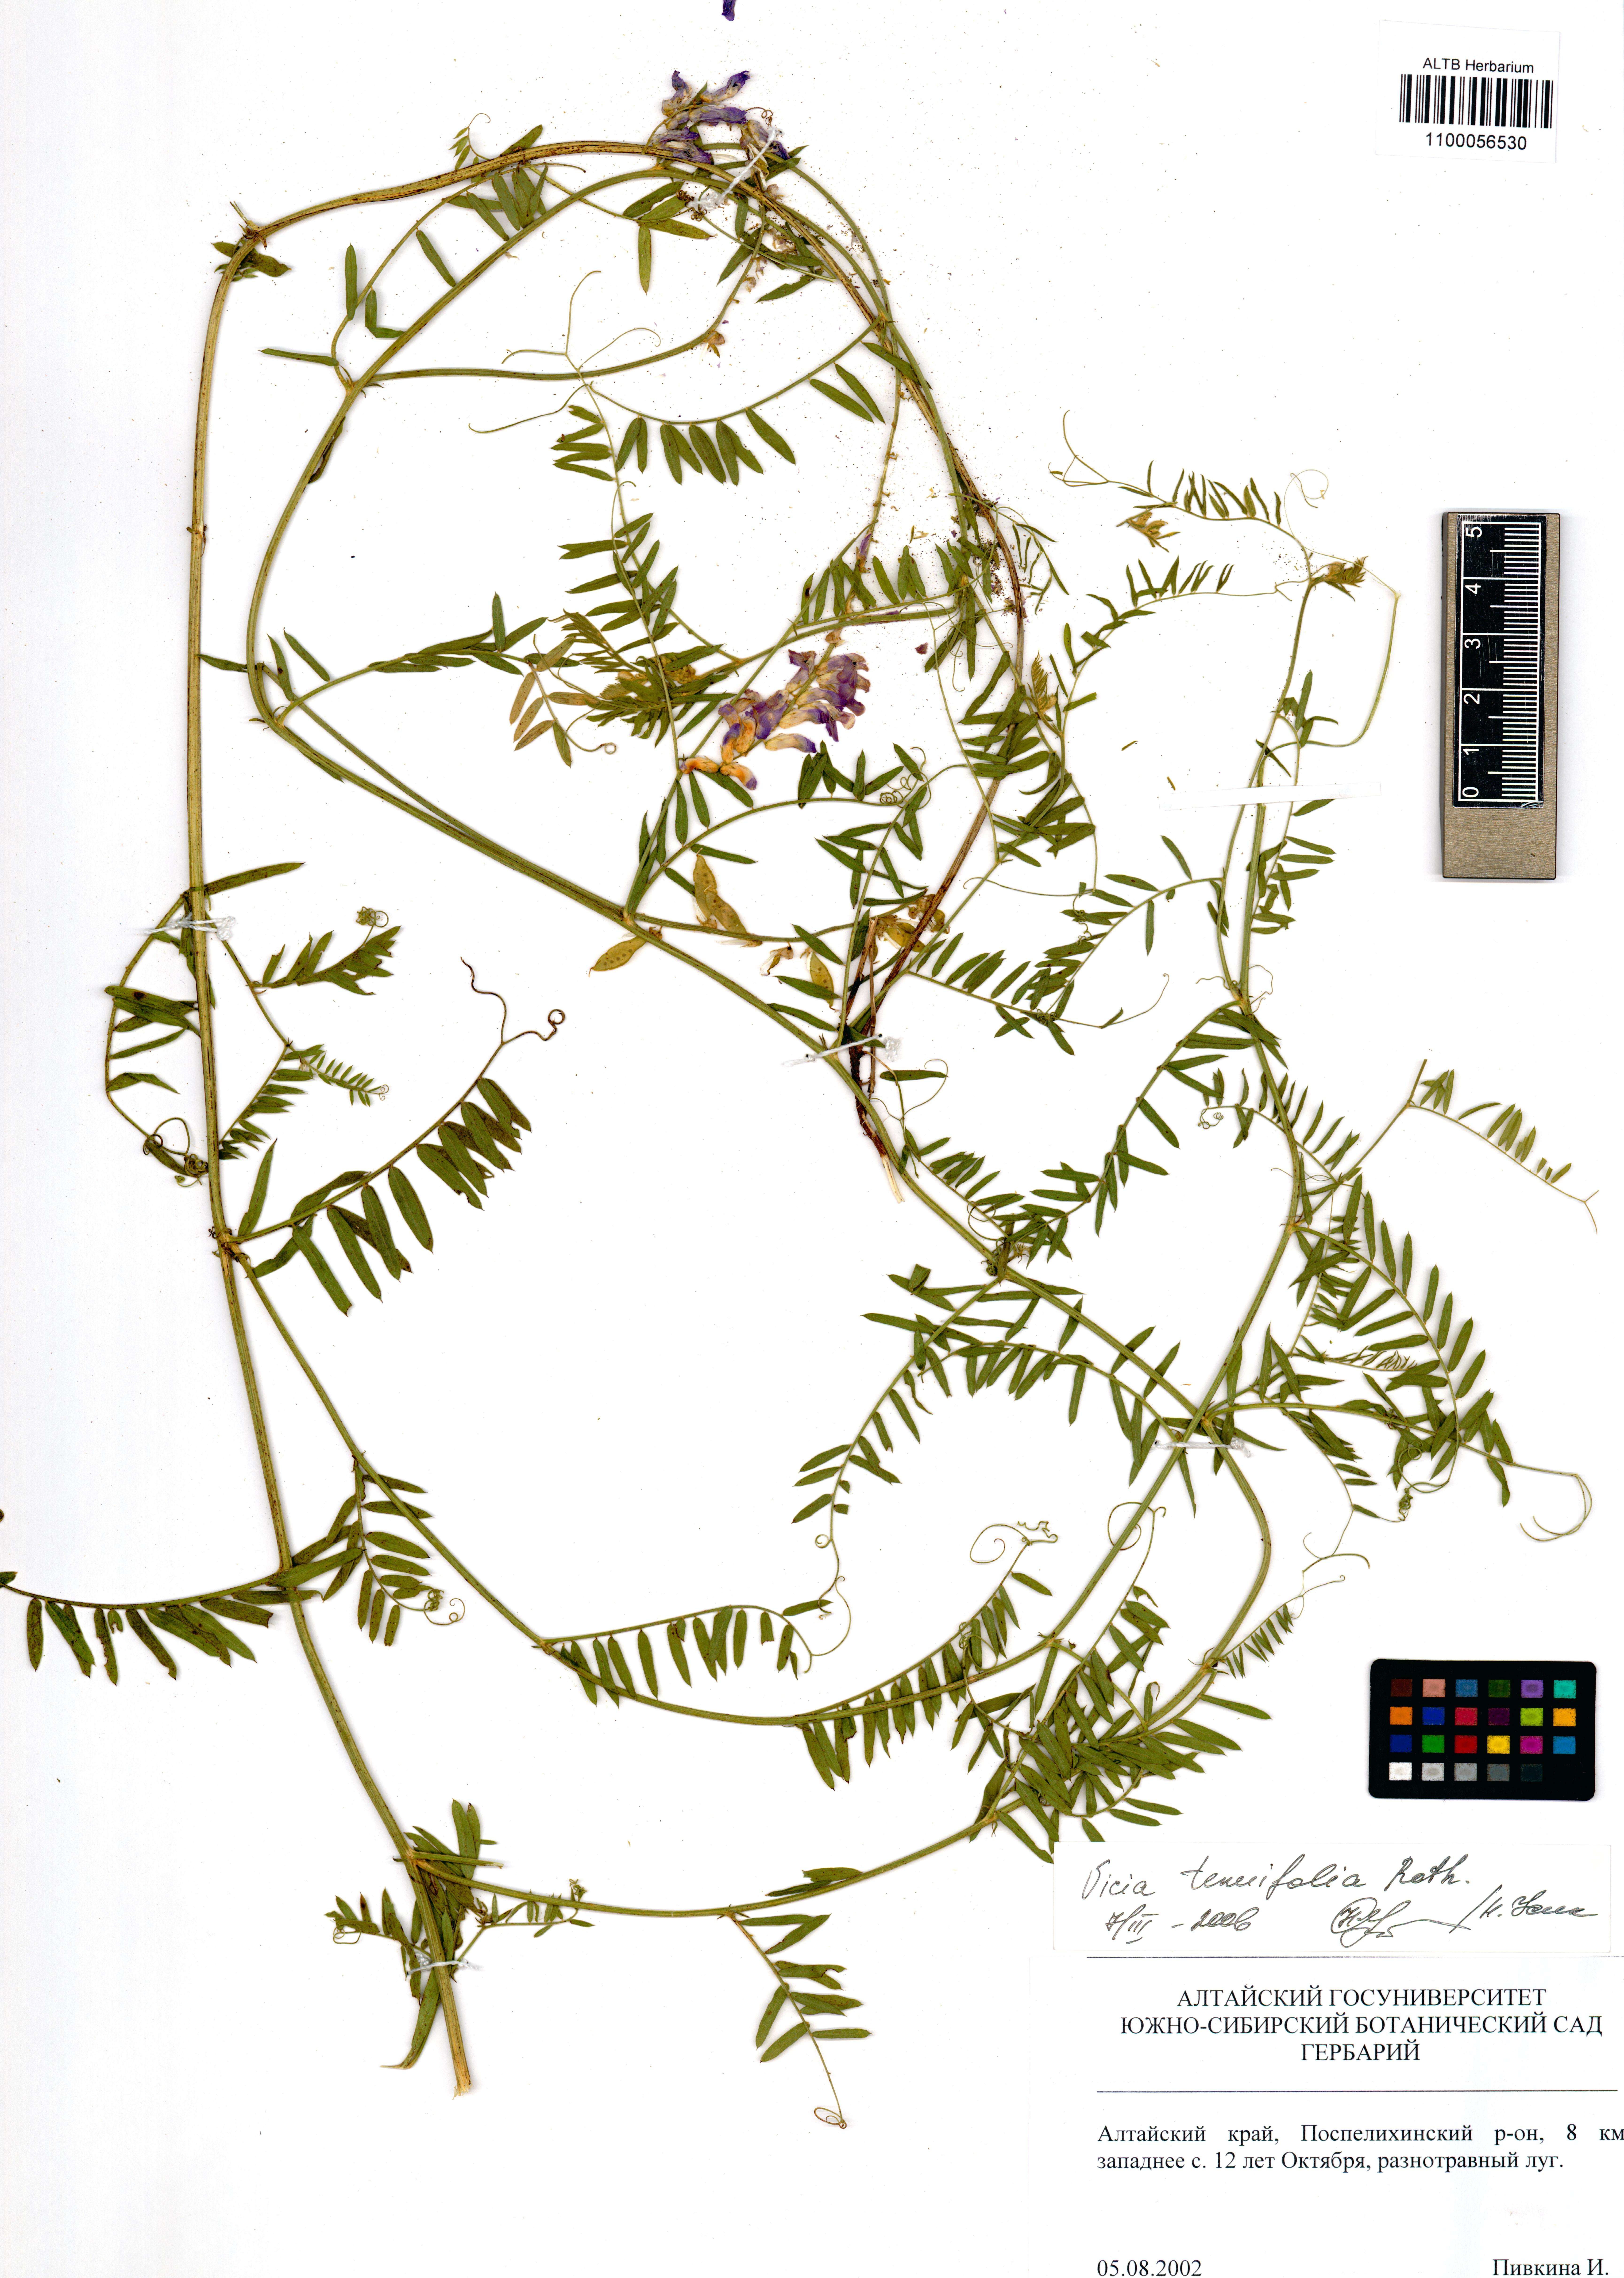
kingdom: Plantae
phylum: Tracheophyta
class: Magnoliopsida
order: Fabales
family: Fabaceae
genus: Vicia
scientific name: Vicia tenuifolia
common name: Fine-leaved vetch
